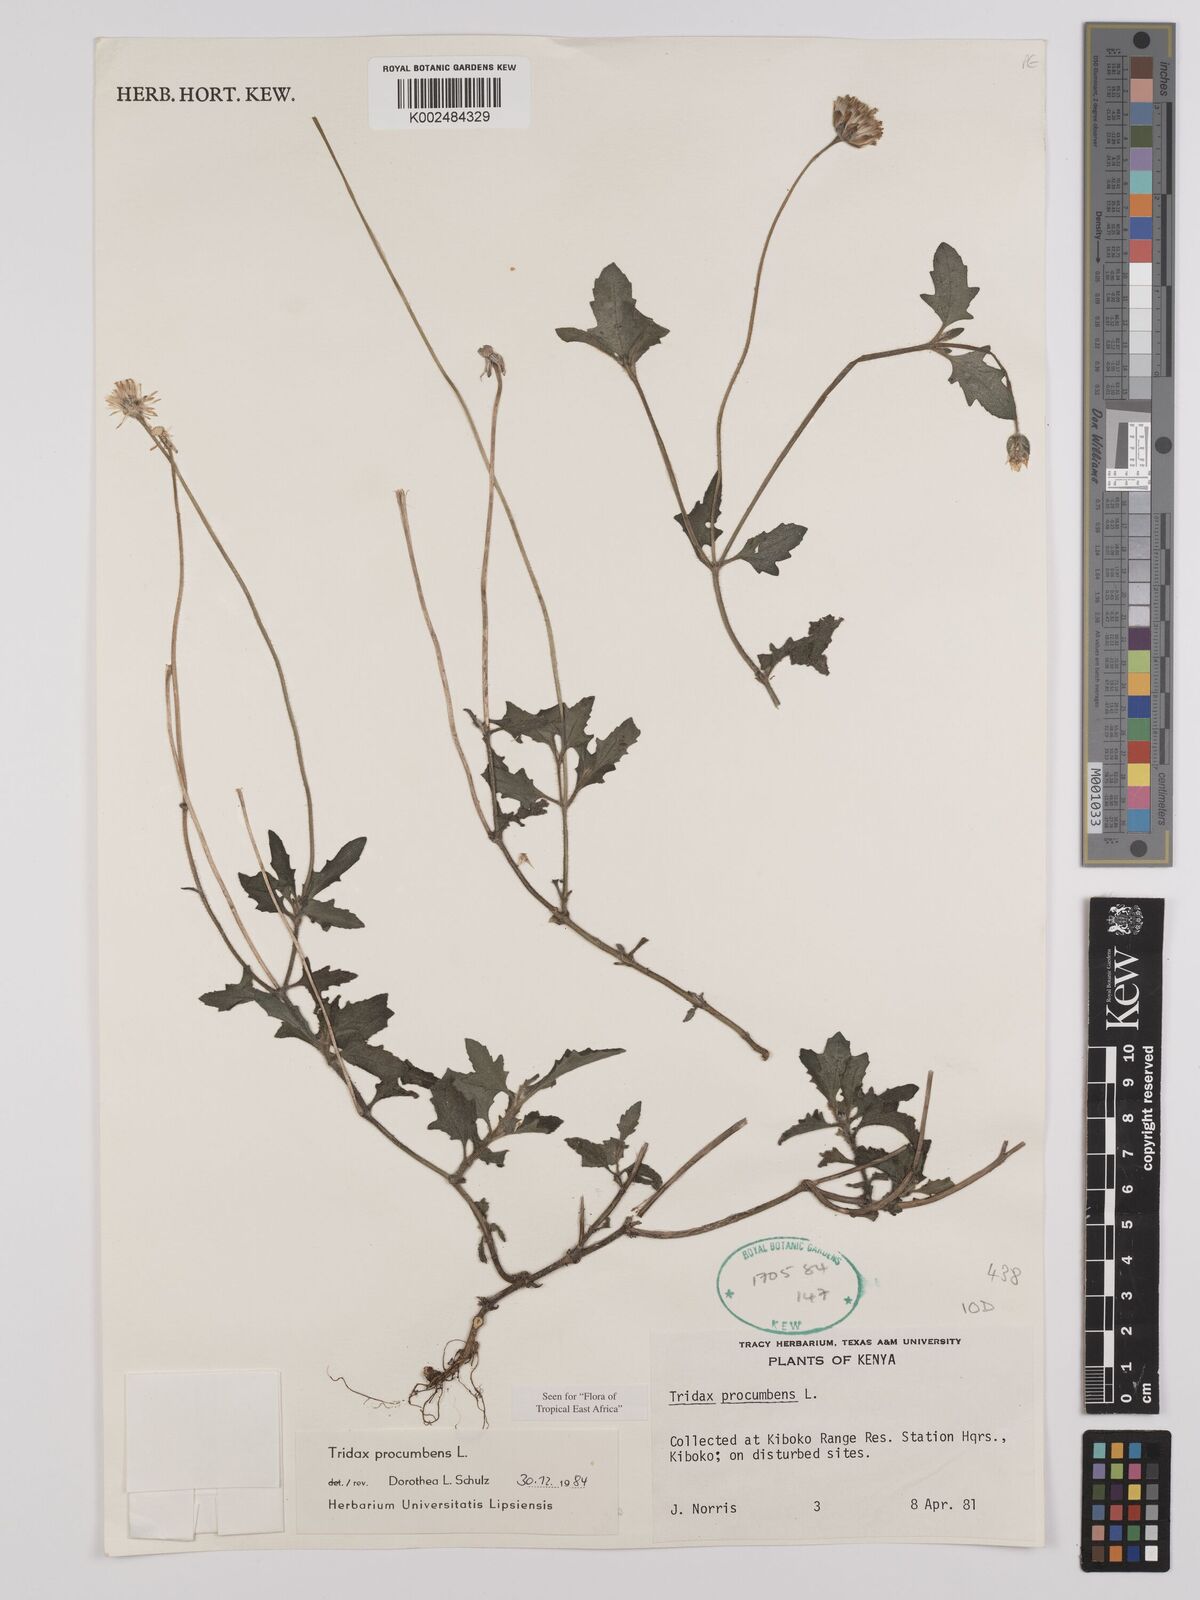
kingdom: Plantae
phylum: Tracheophyta
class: Magnoliopsida
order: Asterales
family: Asteraceae
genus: Tridax
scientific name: Tridax procumbens
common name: Coatbuttons
